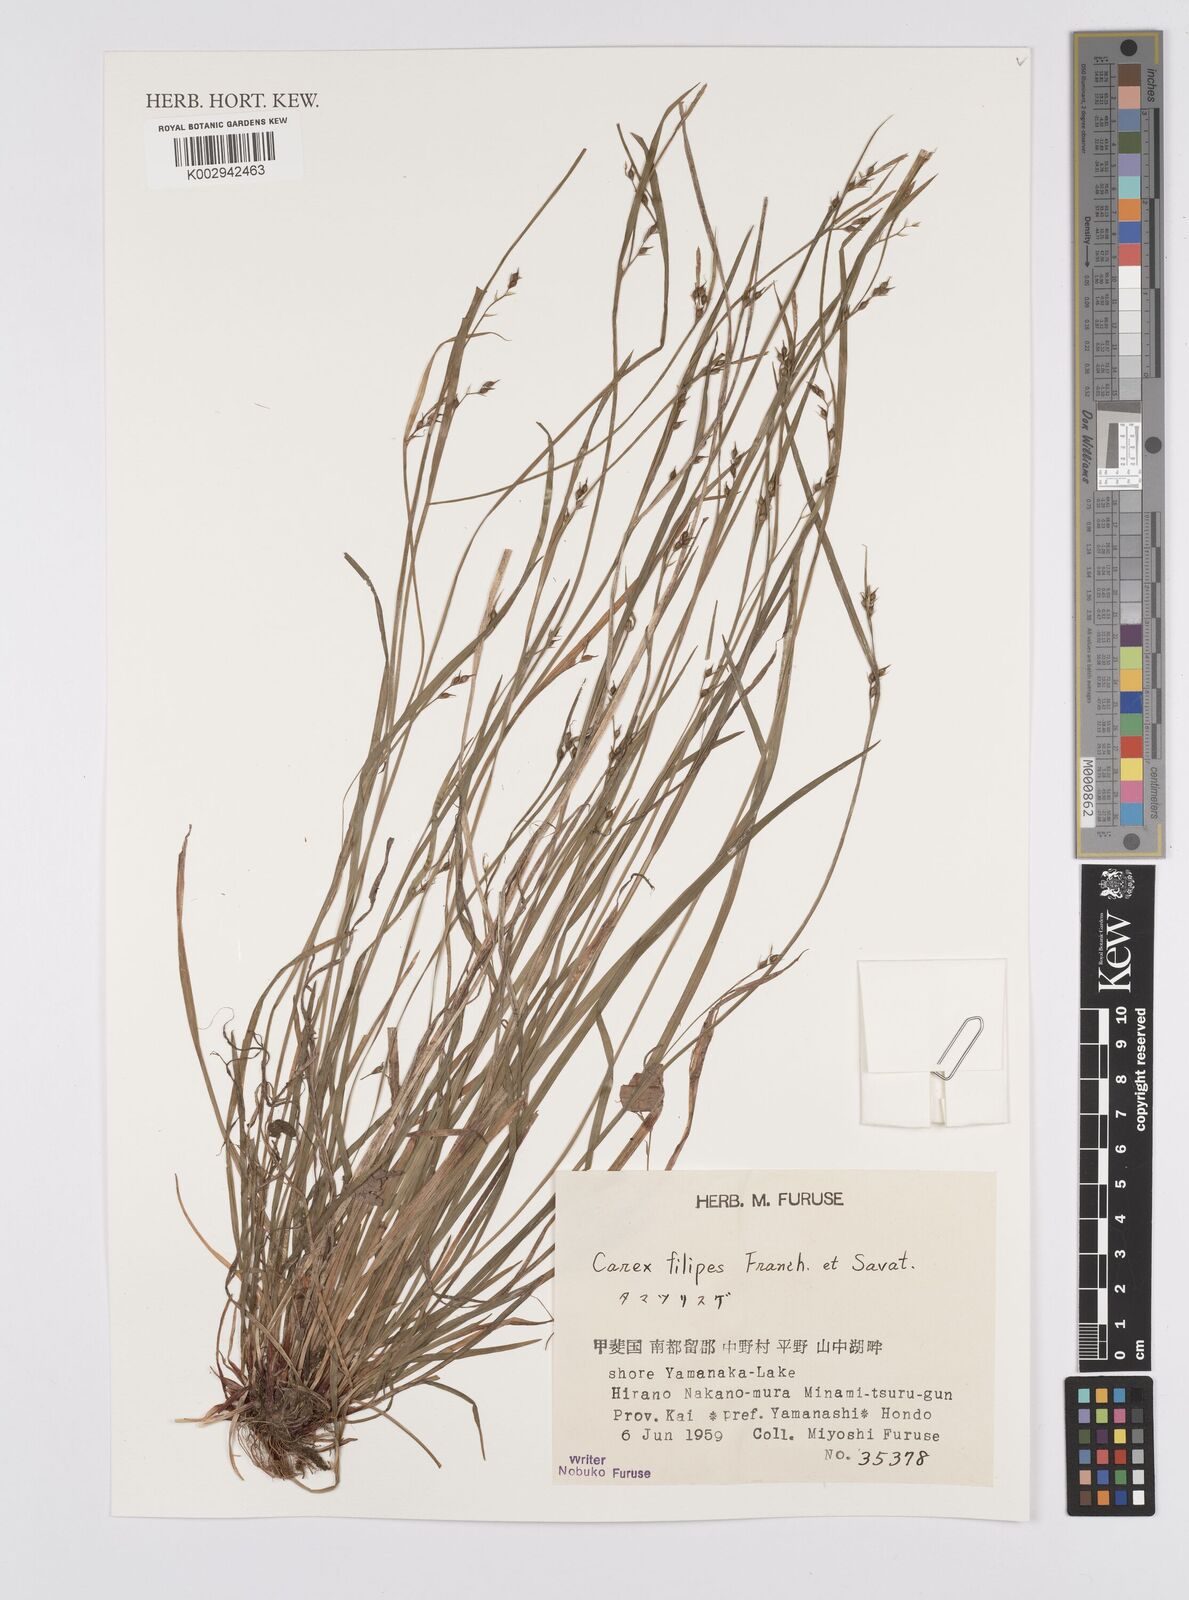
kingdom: Plantae
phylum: Tracheophyta
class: Liliopsida
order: Poales
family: Cyperaceae
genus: Carex
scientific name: Carex filipes
